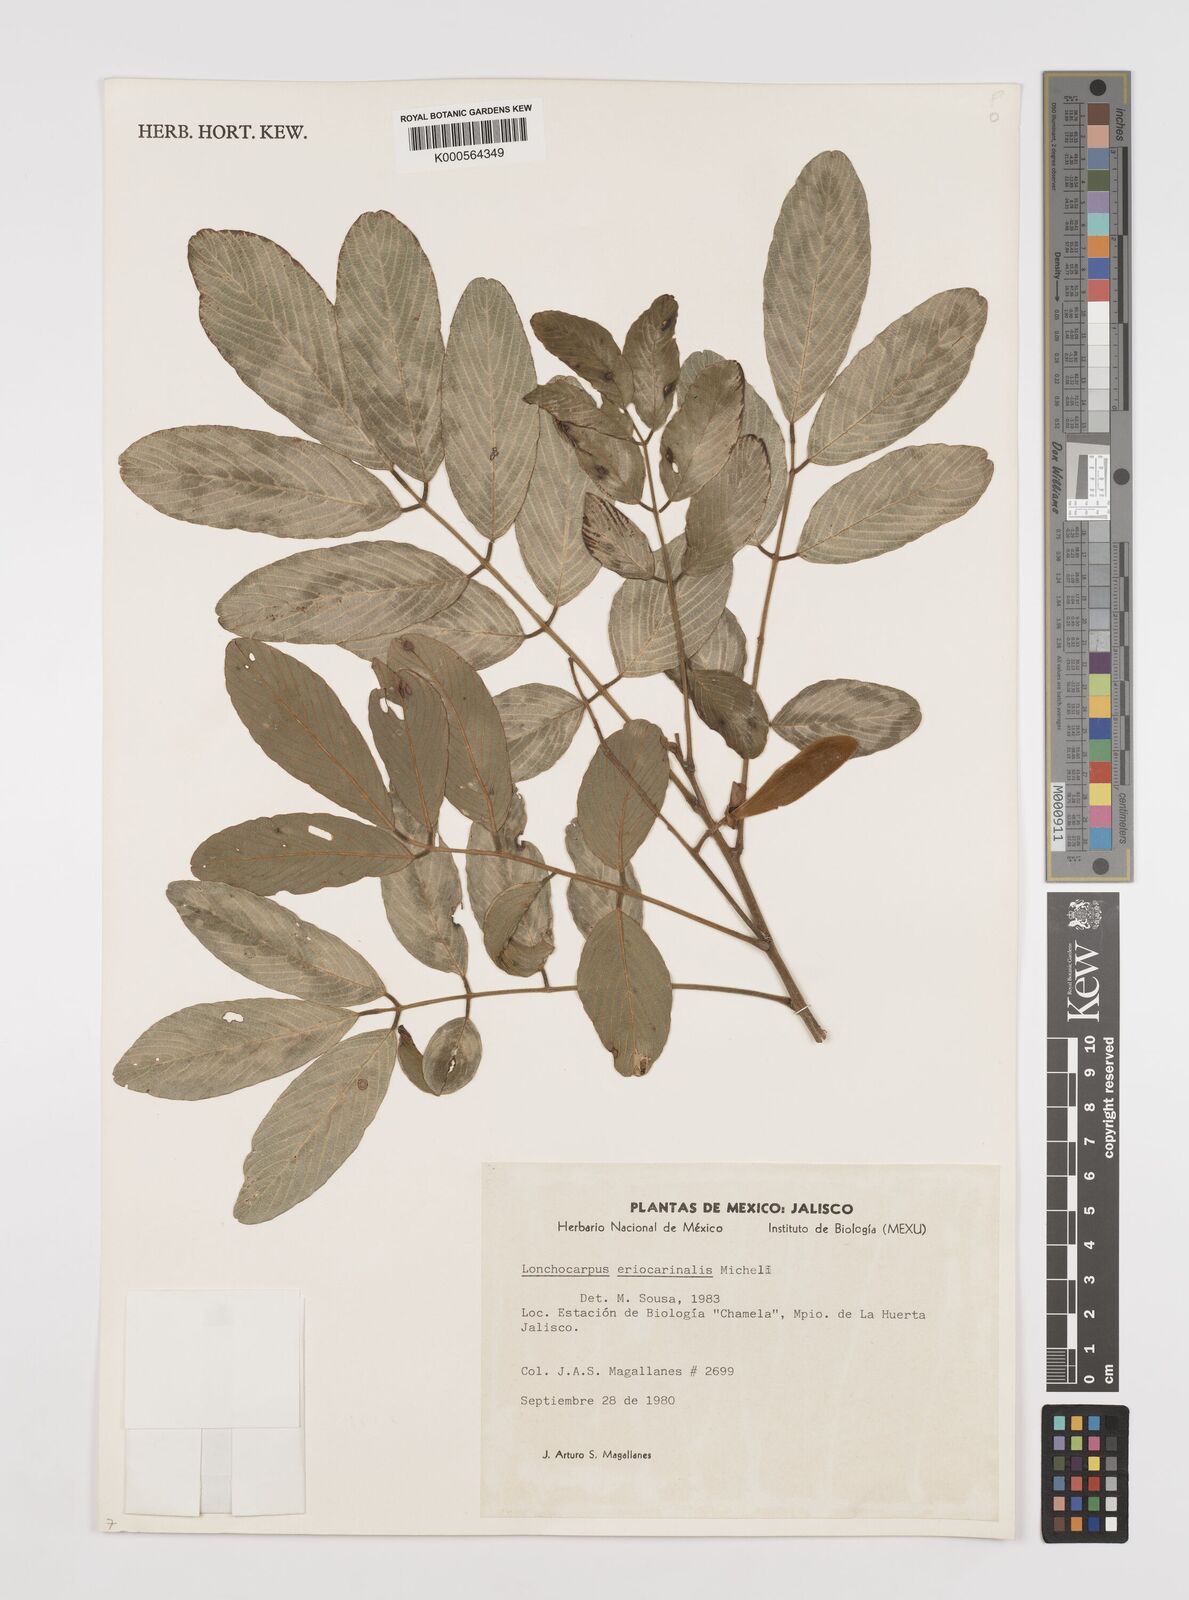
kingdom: Plantae
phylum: Tracheophyta
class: Magnoliopsida
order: Fabales
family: Fabaceae
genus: Lonchocarpus
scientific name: Lonchocarpus eriocarinalis
